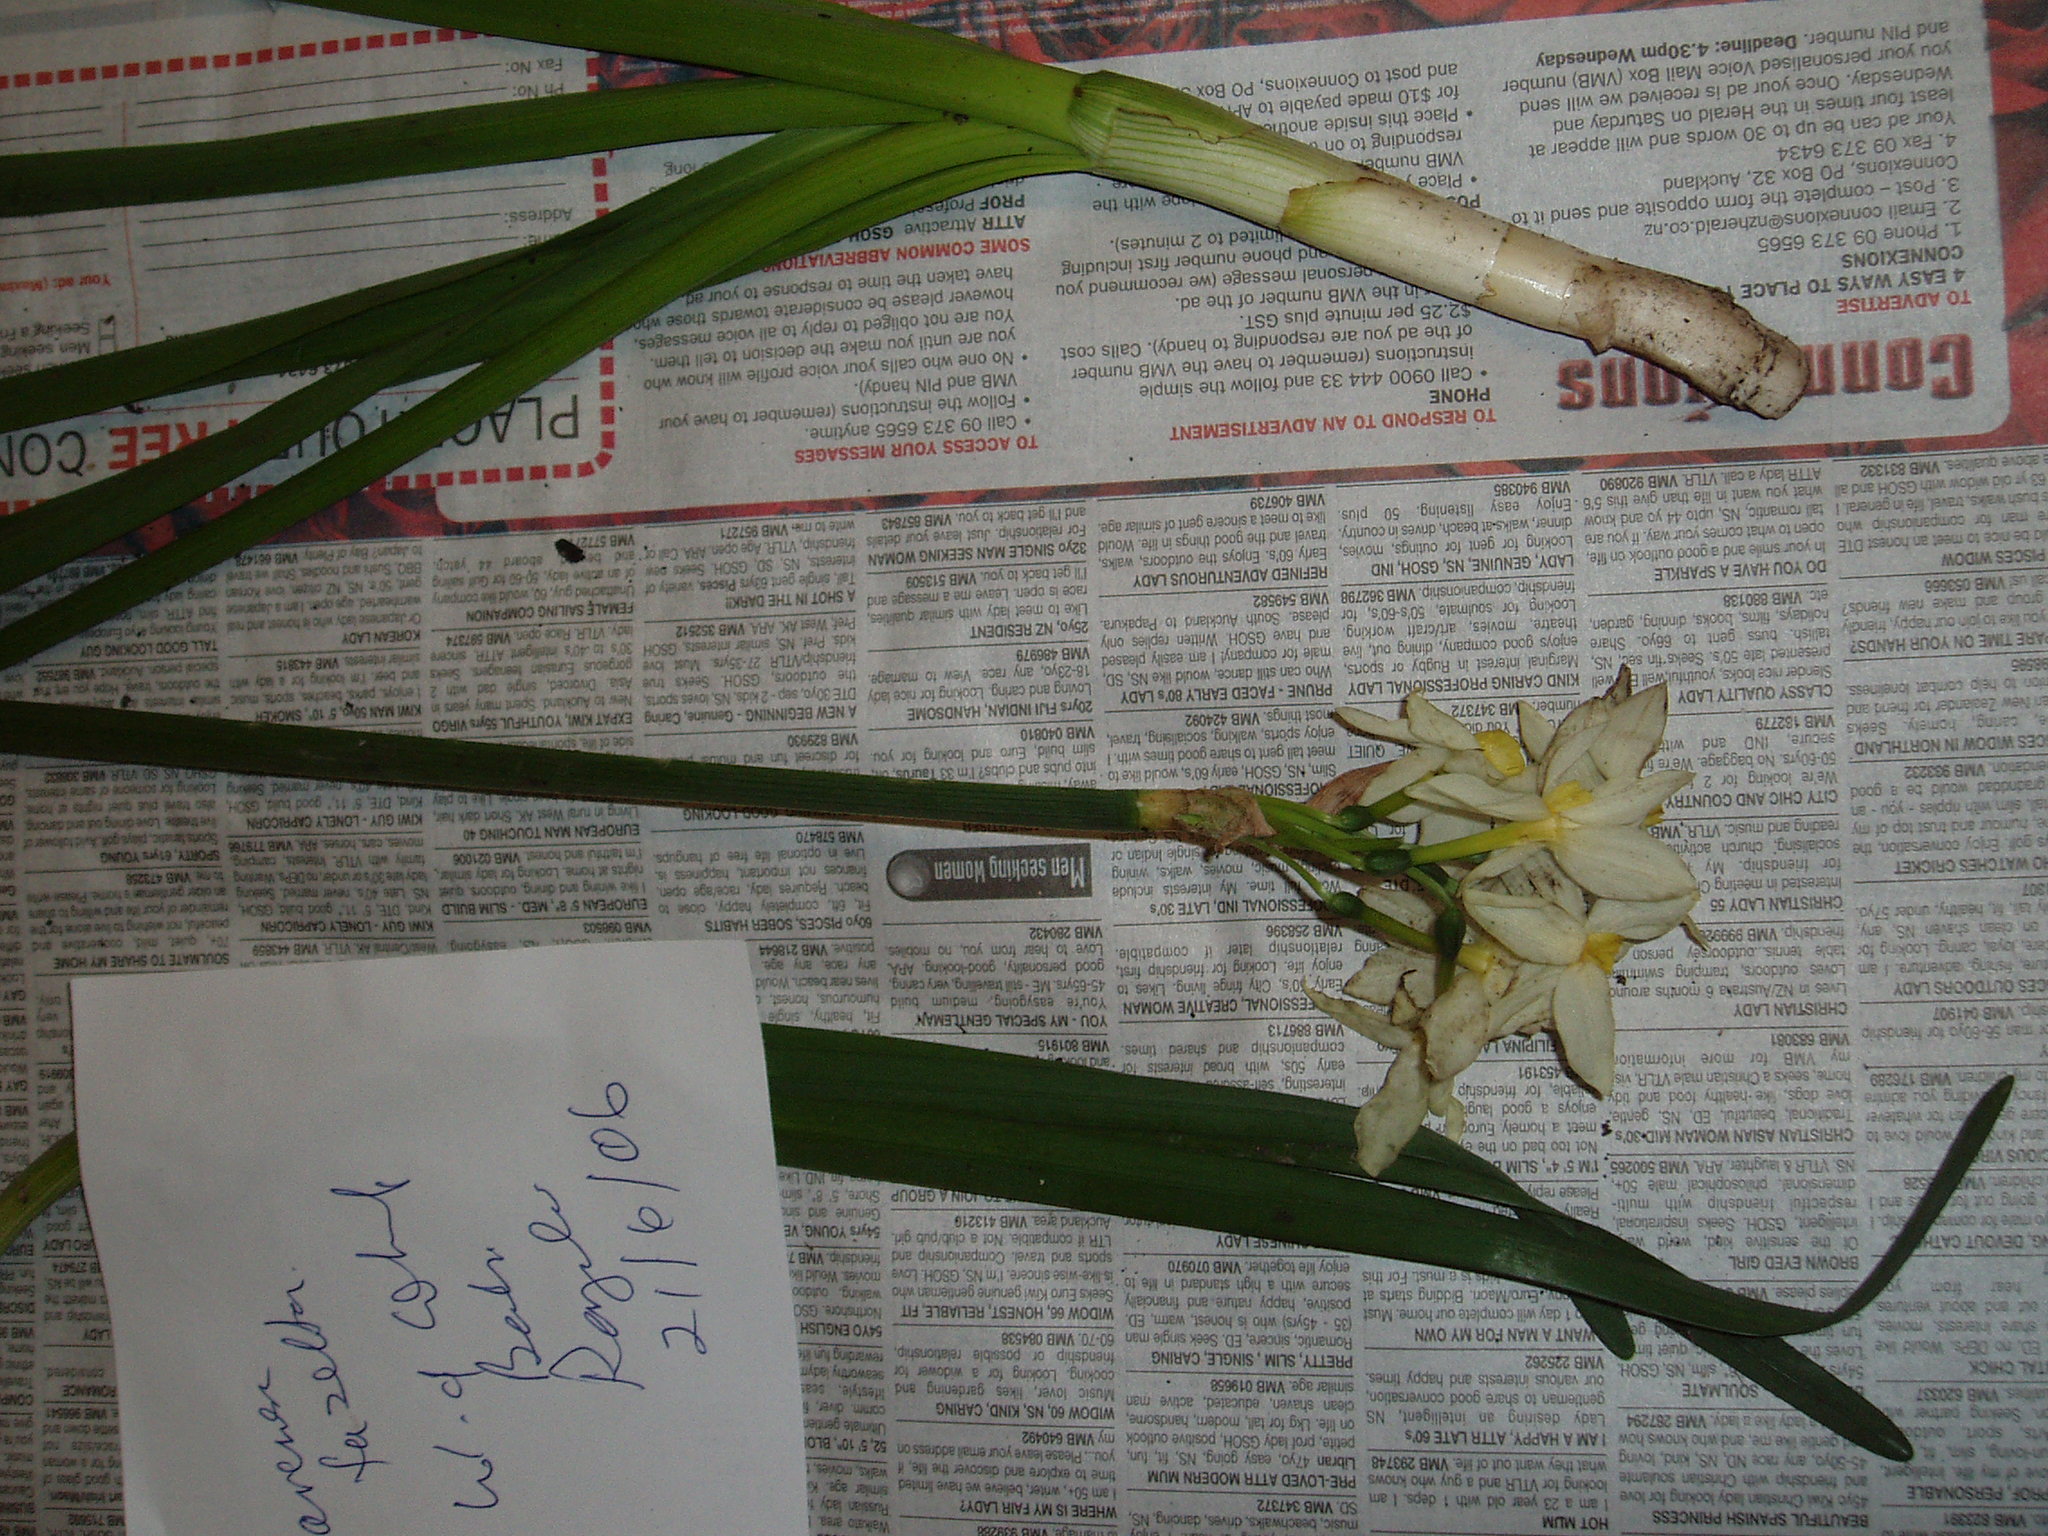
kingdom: Plantae
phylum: Tracheophyta
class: Liliopsida
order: Asparagales
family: Amaryllidaceae
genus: Narcissus
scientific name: Narcissus tazetta
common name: Bunch-flowered daffodil
